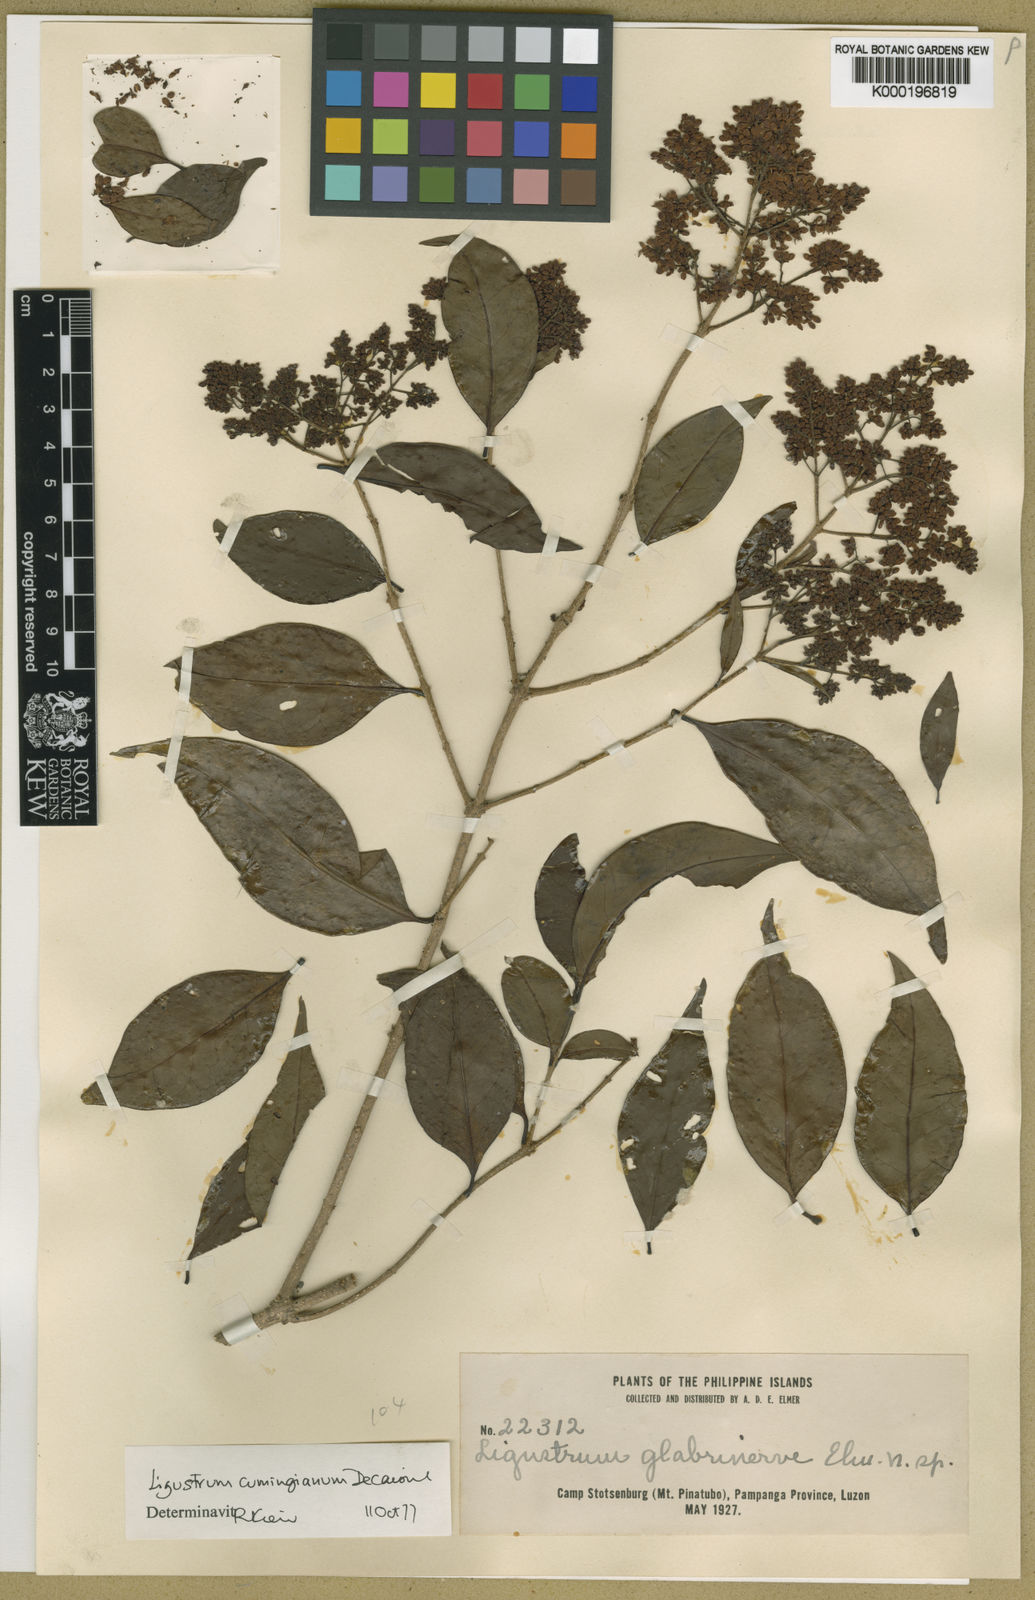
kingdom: Plantae
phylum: Tracheophyta
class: Magnoliopsida
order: Lamiales
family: Oleaceae
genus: Ligustrum
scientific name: Ligustrum cumingianum
